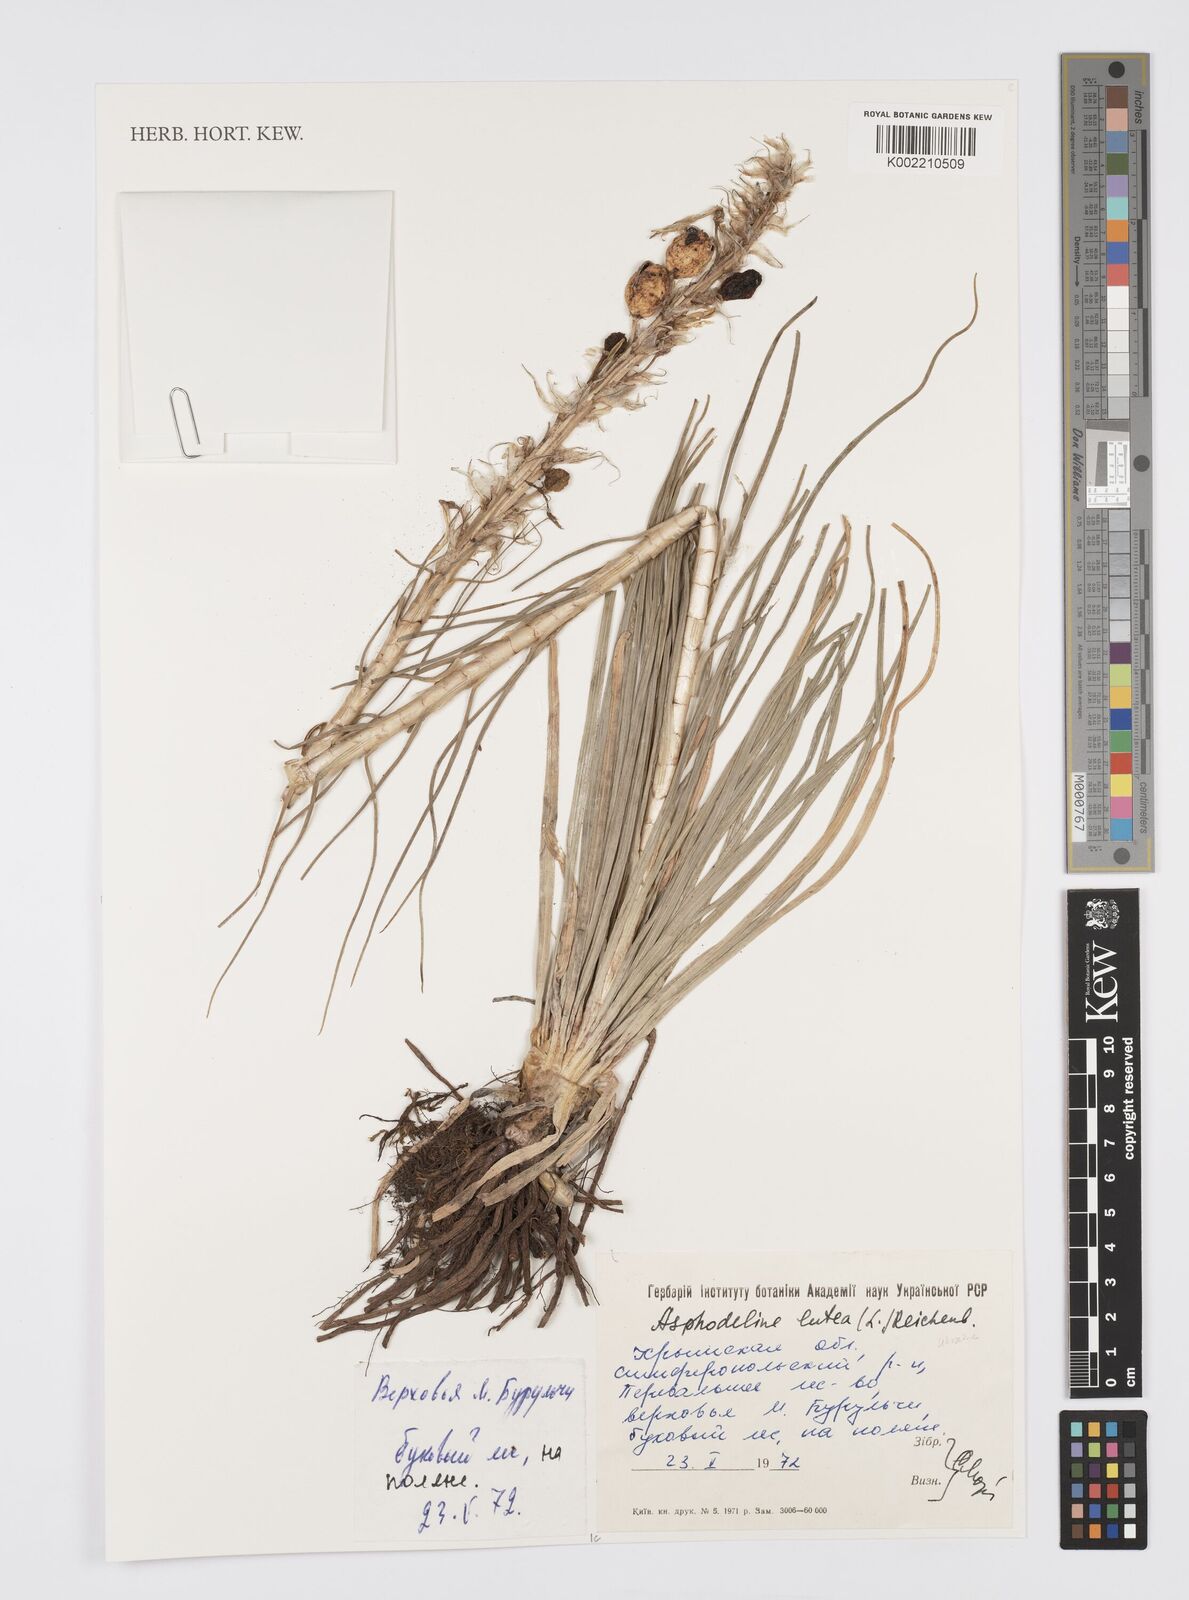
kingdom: Plantae
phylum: Tracheophyta
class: Liliopsida
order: Asparagales
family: Asphodelaceae
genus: Asphodeline
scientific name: Asphodeline lutea
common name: Yellow asphodel
